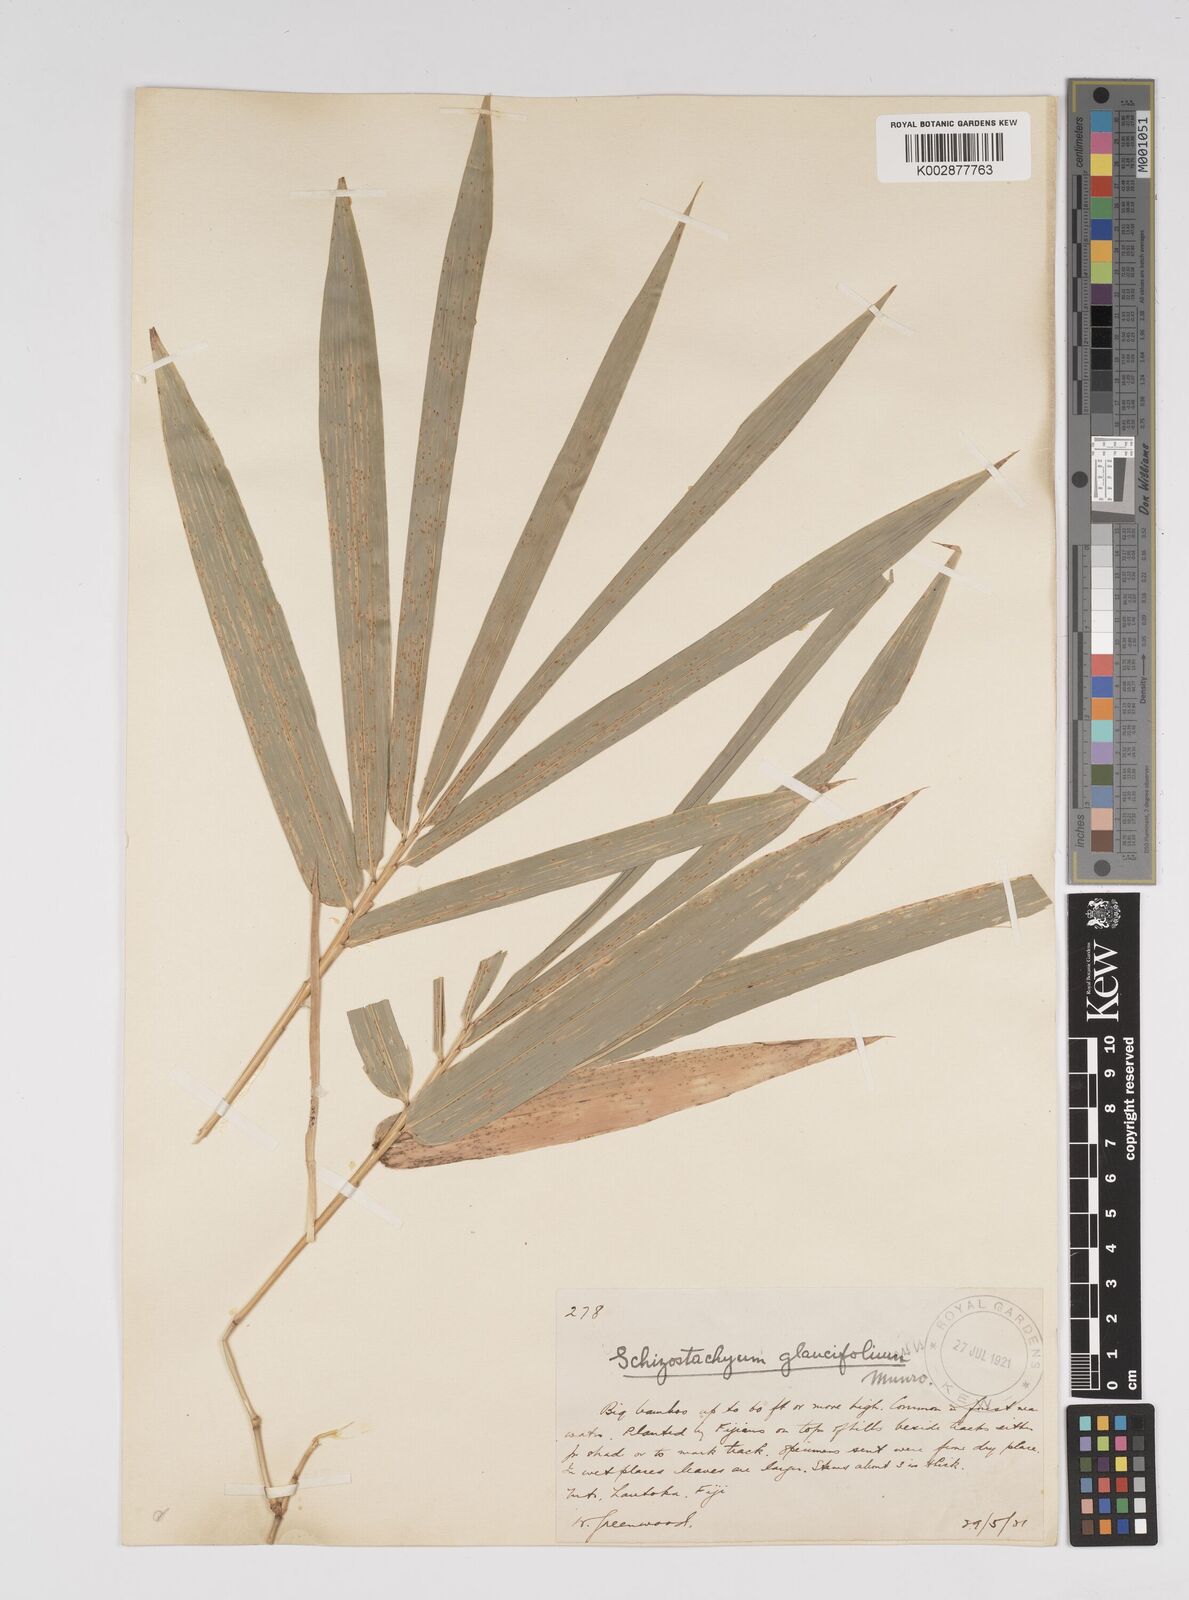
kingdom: Plantae
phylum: Tracheophyta
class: Liliopsida
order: Poales
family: Poaceae
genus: Bambusa
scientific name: Bambusa
